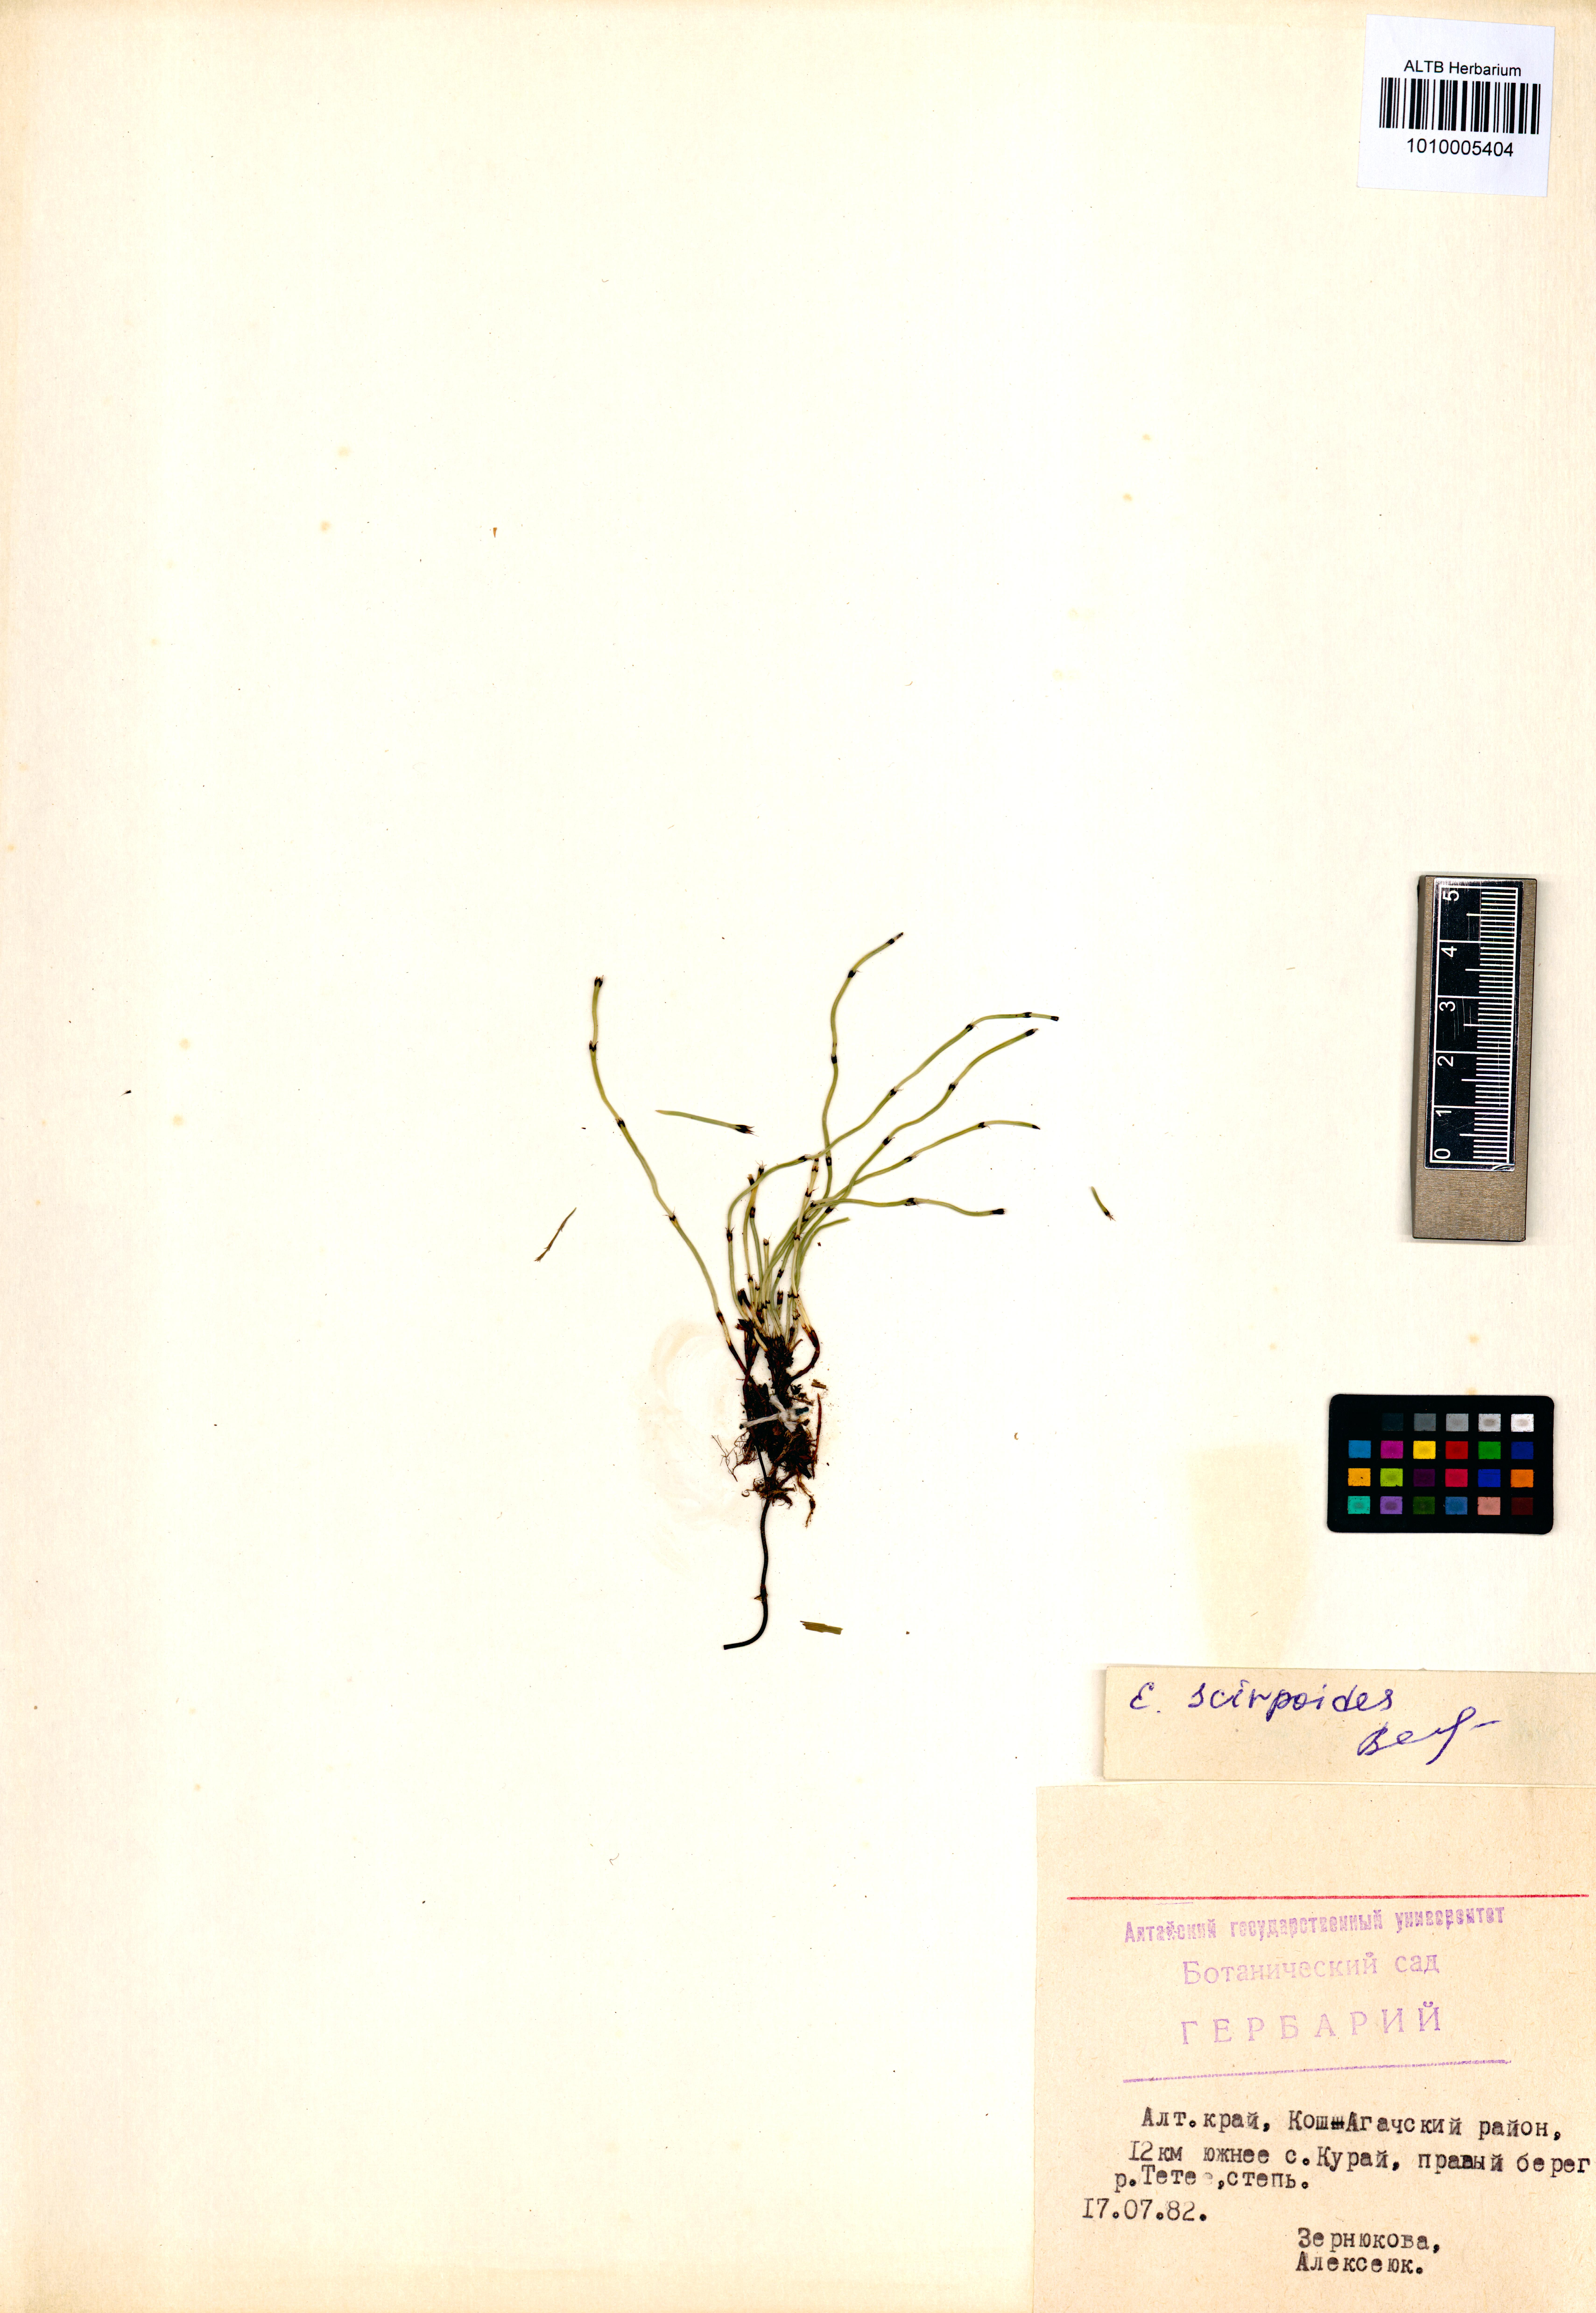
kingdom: Plantae
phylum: Tracheophyta
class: Polypodiopsida
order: Equisetales
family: Equisetaceae
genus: Equisetum
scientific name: Equisetum scirpoides
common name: Delicate horsetail
